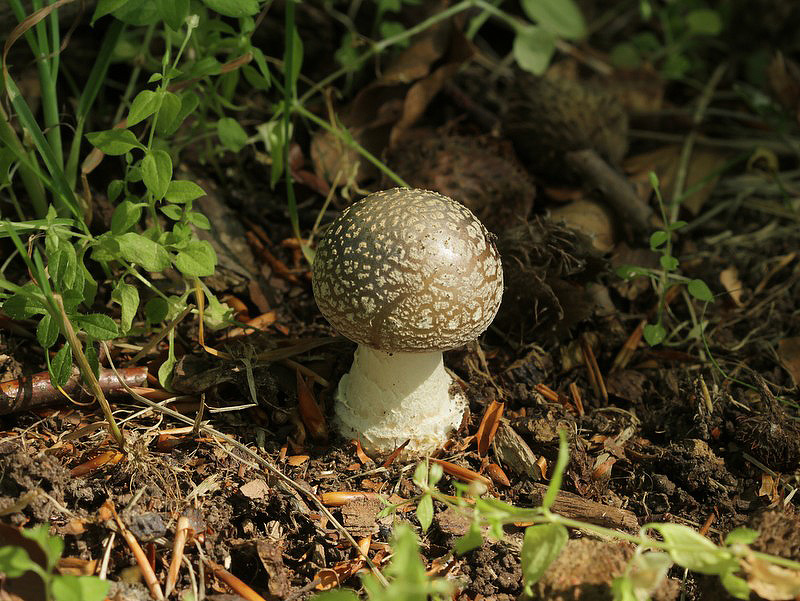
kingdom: Fungi
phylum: Basidiomycota
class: Agaricomycetes
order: Agaricales
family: Amanitaceae
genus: Amanita
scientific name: Amanita
